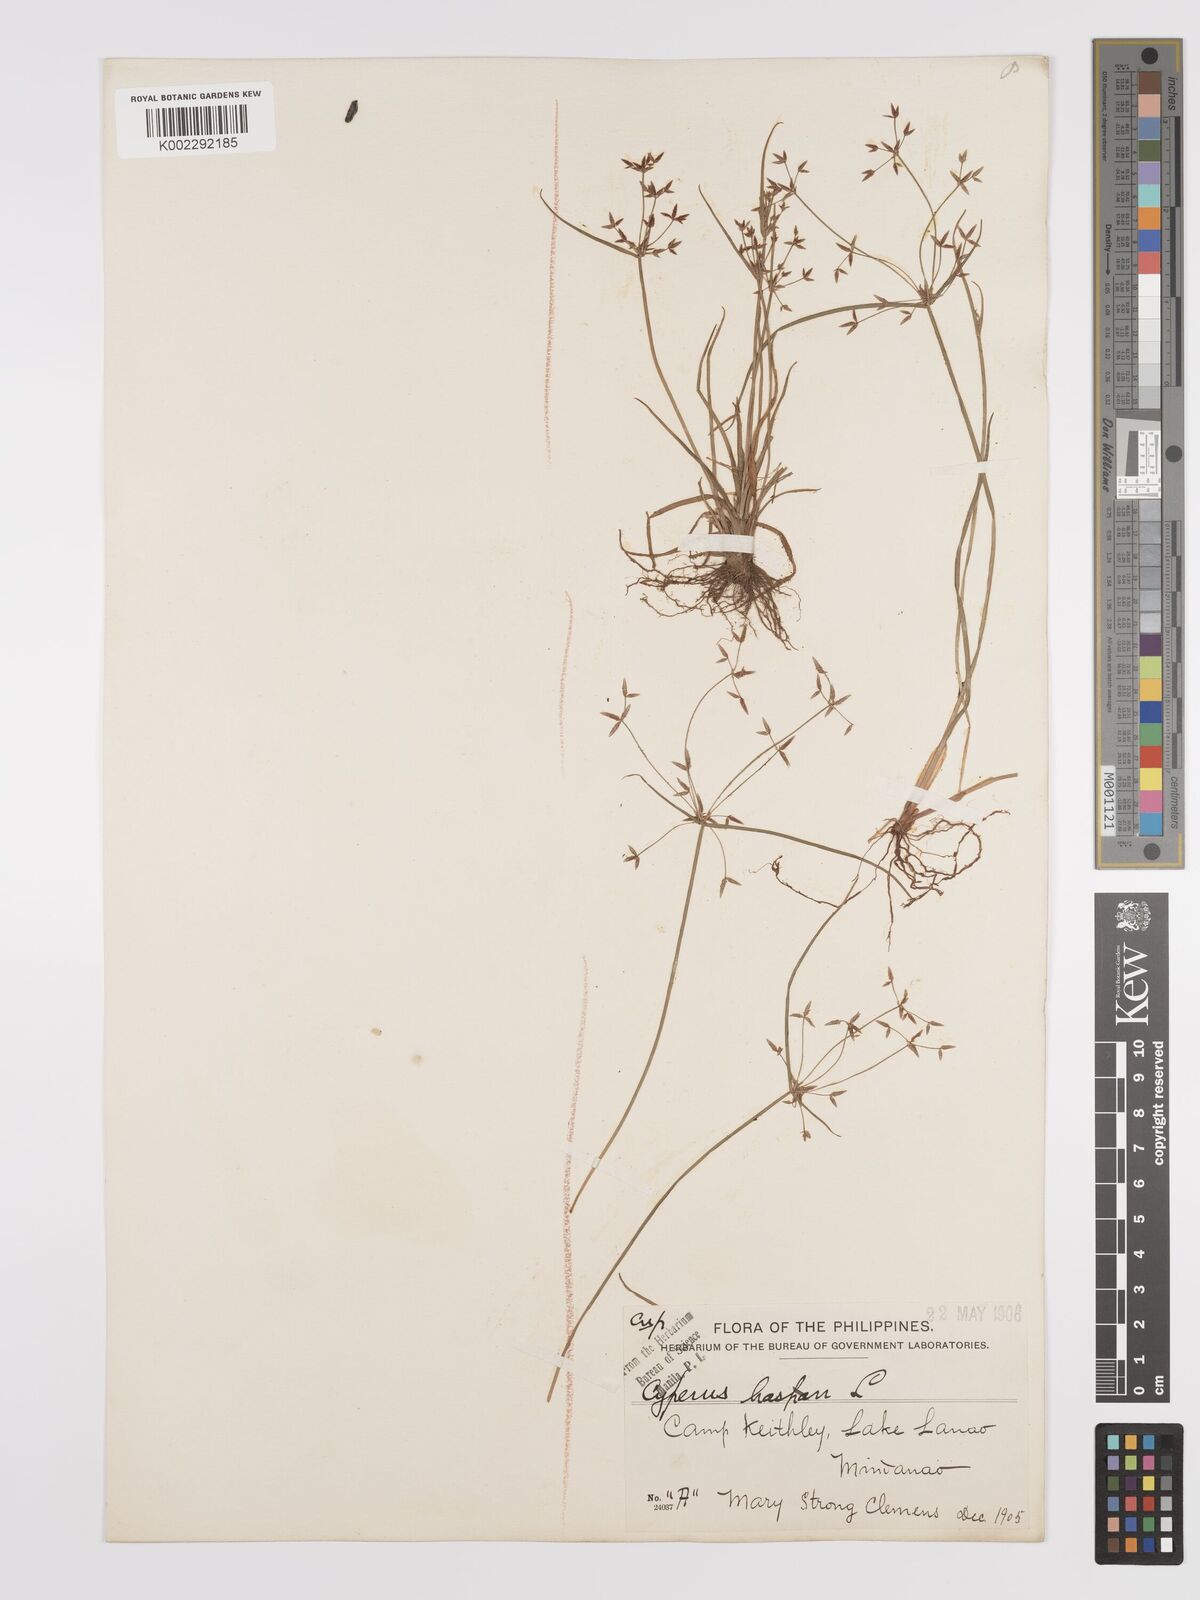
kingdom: Plantae
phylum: Tracheophyta
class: Liliopsida
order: Poales
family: Cyperaceae
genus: Cyperus
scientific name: Cyperus haspan
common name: Haspan flatsedge
